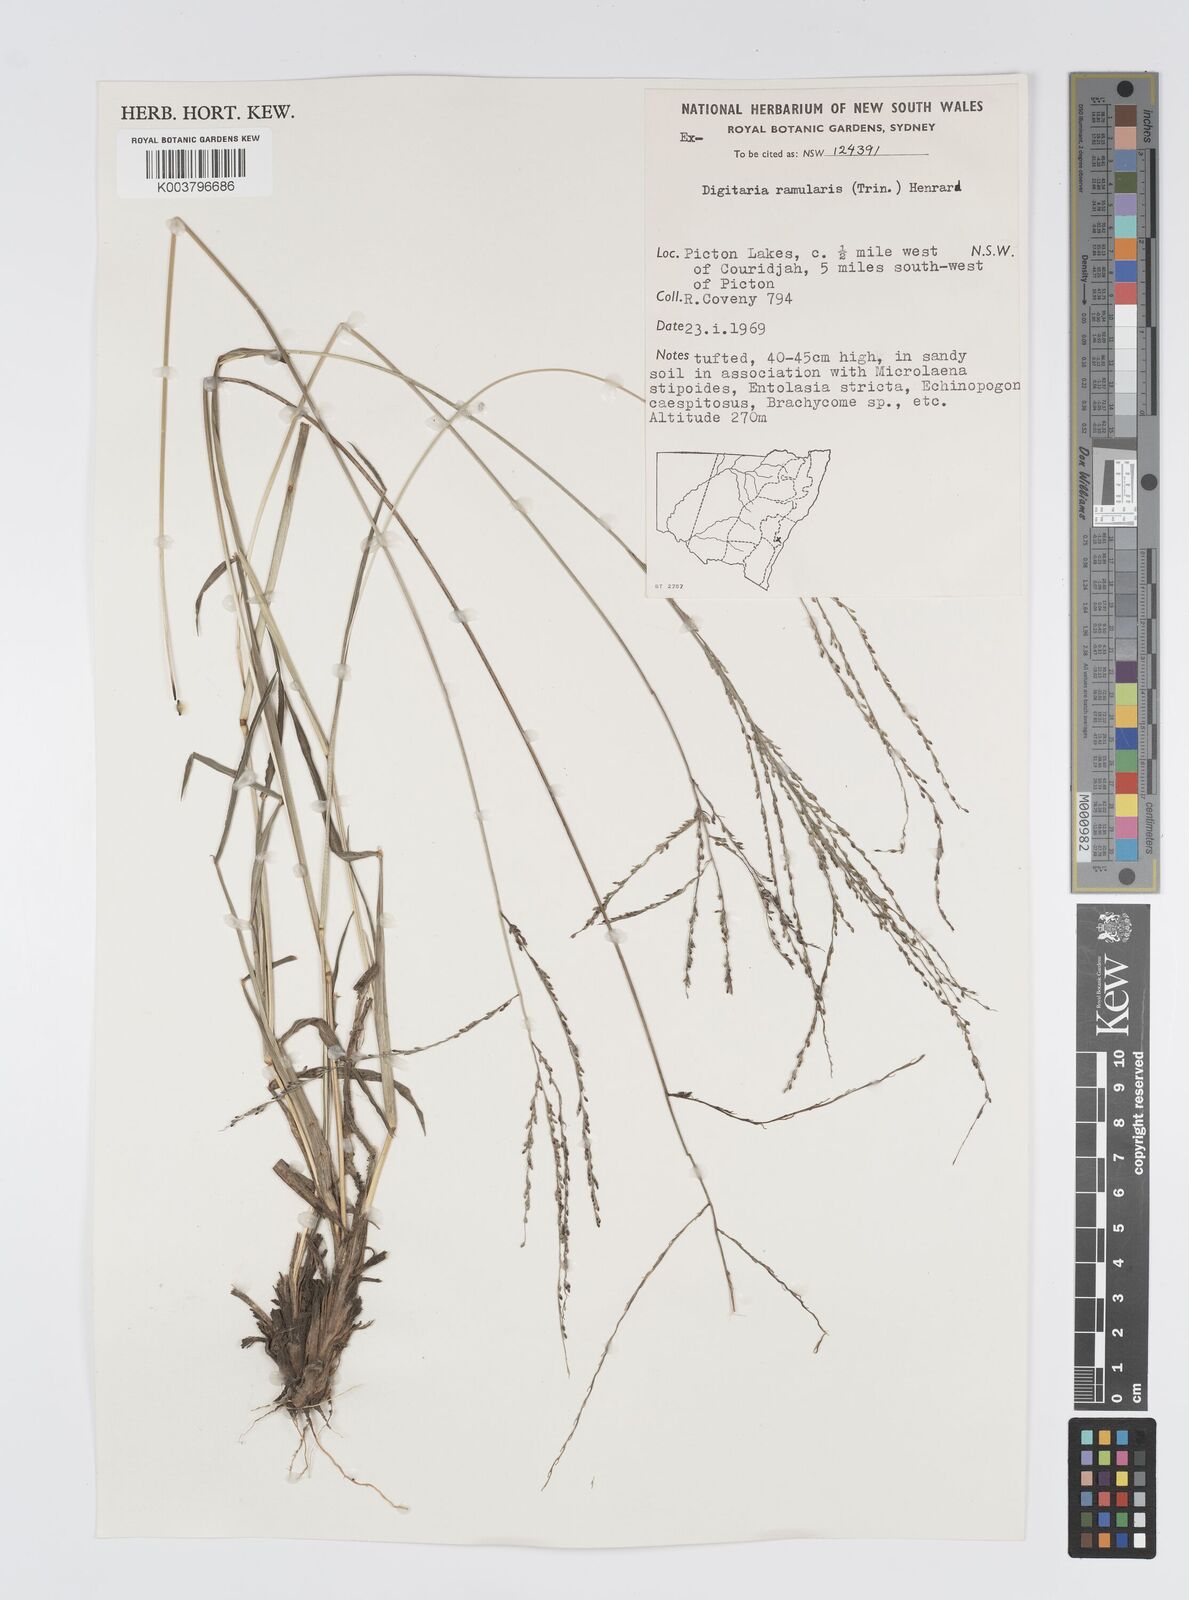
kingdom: Plantae
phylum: Tracheophyta
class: Liliopsida
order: Poales
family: Poaceae
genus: Digitaria
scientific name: Digitaria ramularis
